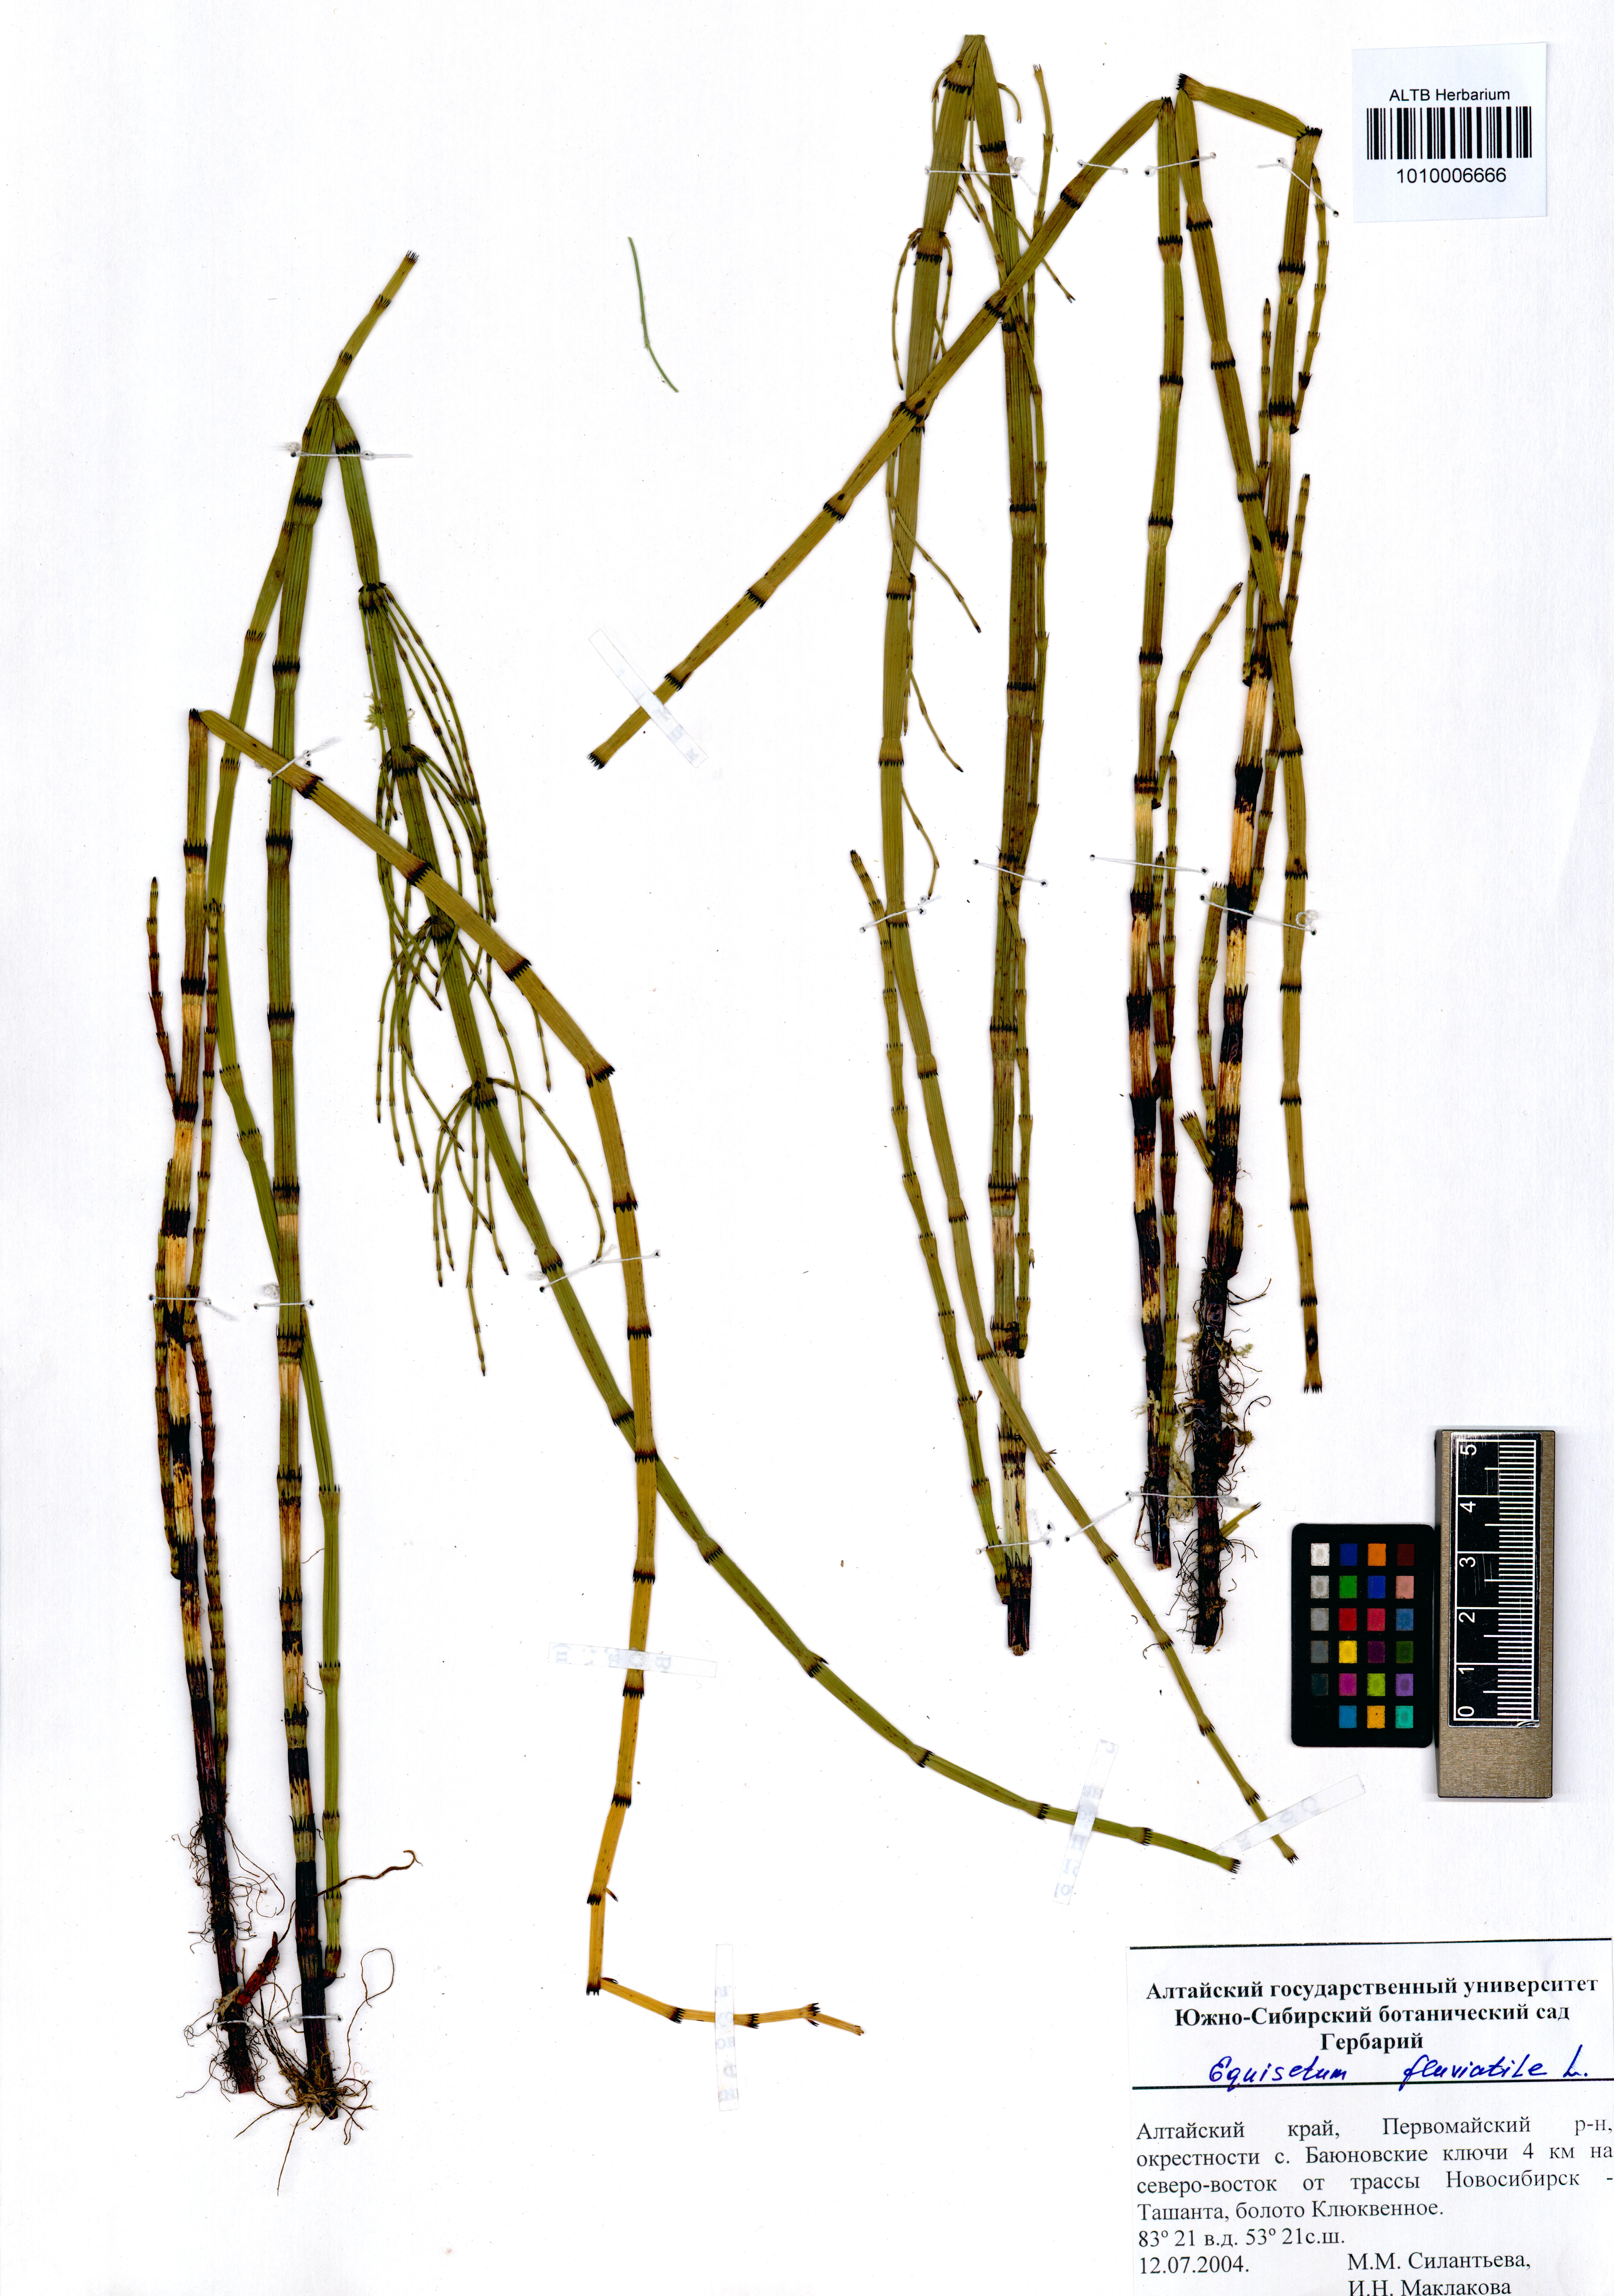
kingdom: Plantae
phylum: Tracheophyta
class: Polypodiopsida
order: Equisetales
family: Equisetaceae
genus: Equisetum
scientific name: Equisetum fluviatile
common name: Water horsetail
